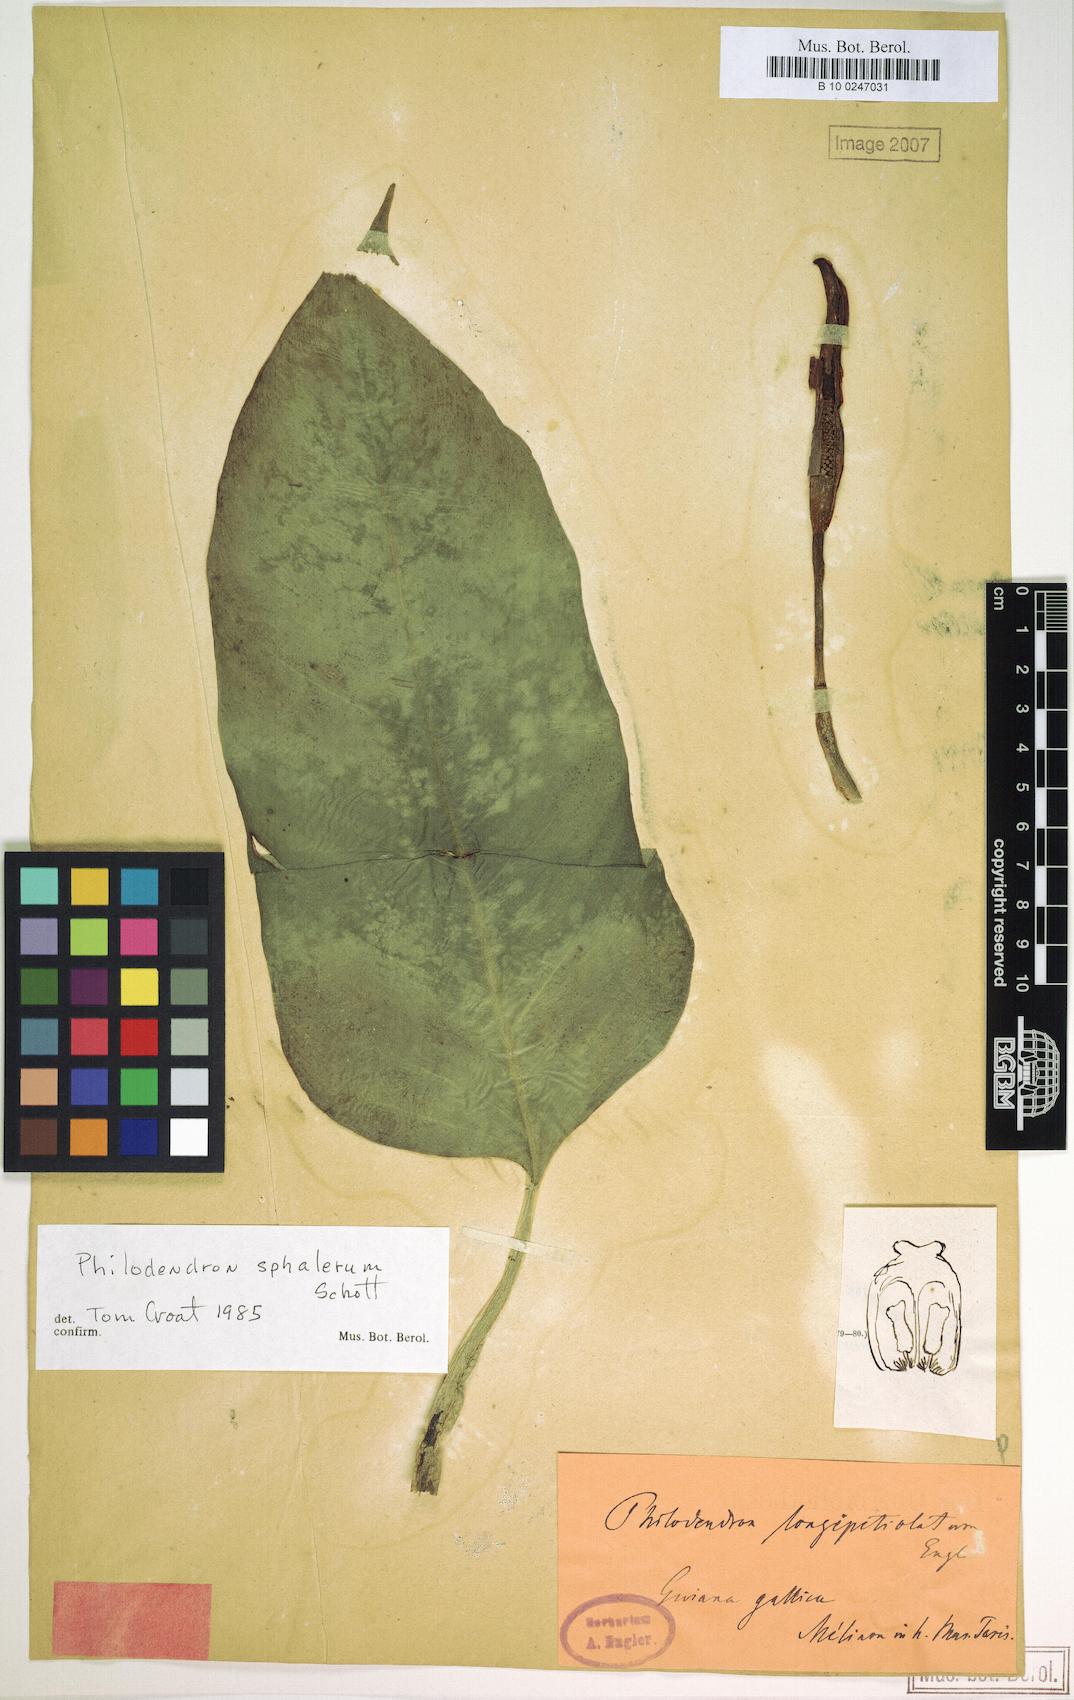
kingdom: Plantae
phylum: Tracheophyta
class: Liliopsida
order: Alismatales
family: Araceae
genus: Philodendron
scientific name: Philodendron sphalerum
